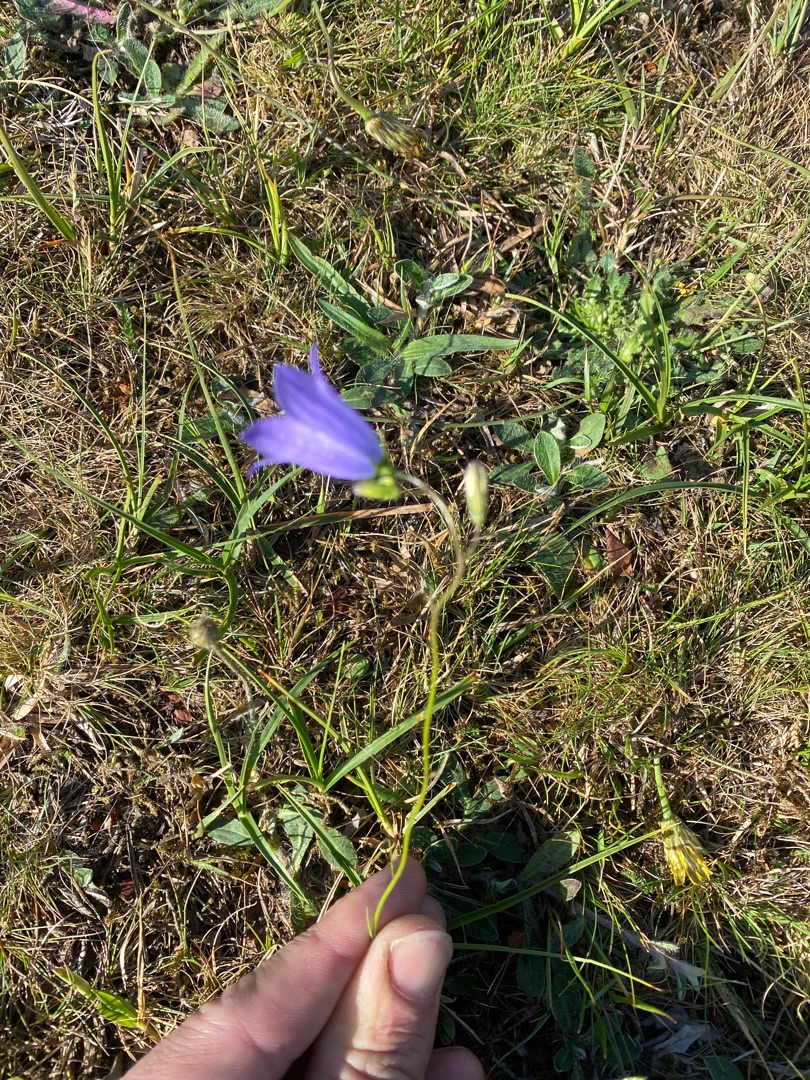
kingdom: Plantae
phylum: Tracheophyta
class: Magnoliopsida
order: Asterales
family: Campanulaceae
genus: Campanula
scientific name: Campanula rotundifolia
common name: Liden klokke
